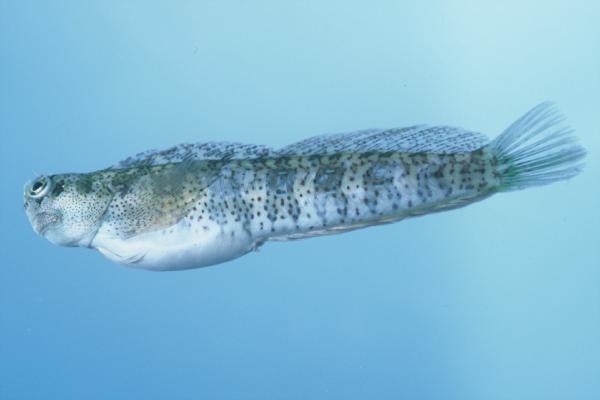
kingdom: Animalia
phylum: Chordata
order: Perciformes
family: Blenniidae
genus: Blenniella
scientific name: Blenniella periophthalmus
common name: Blue-dashed rockskipper
